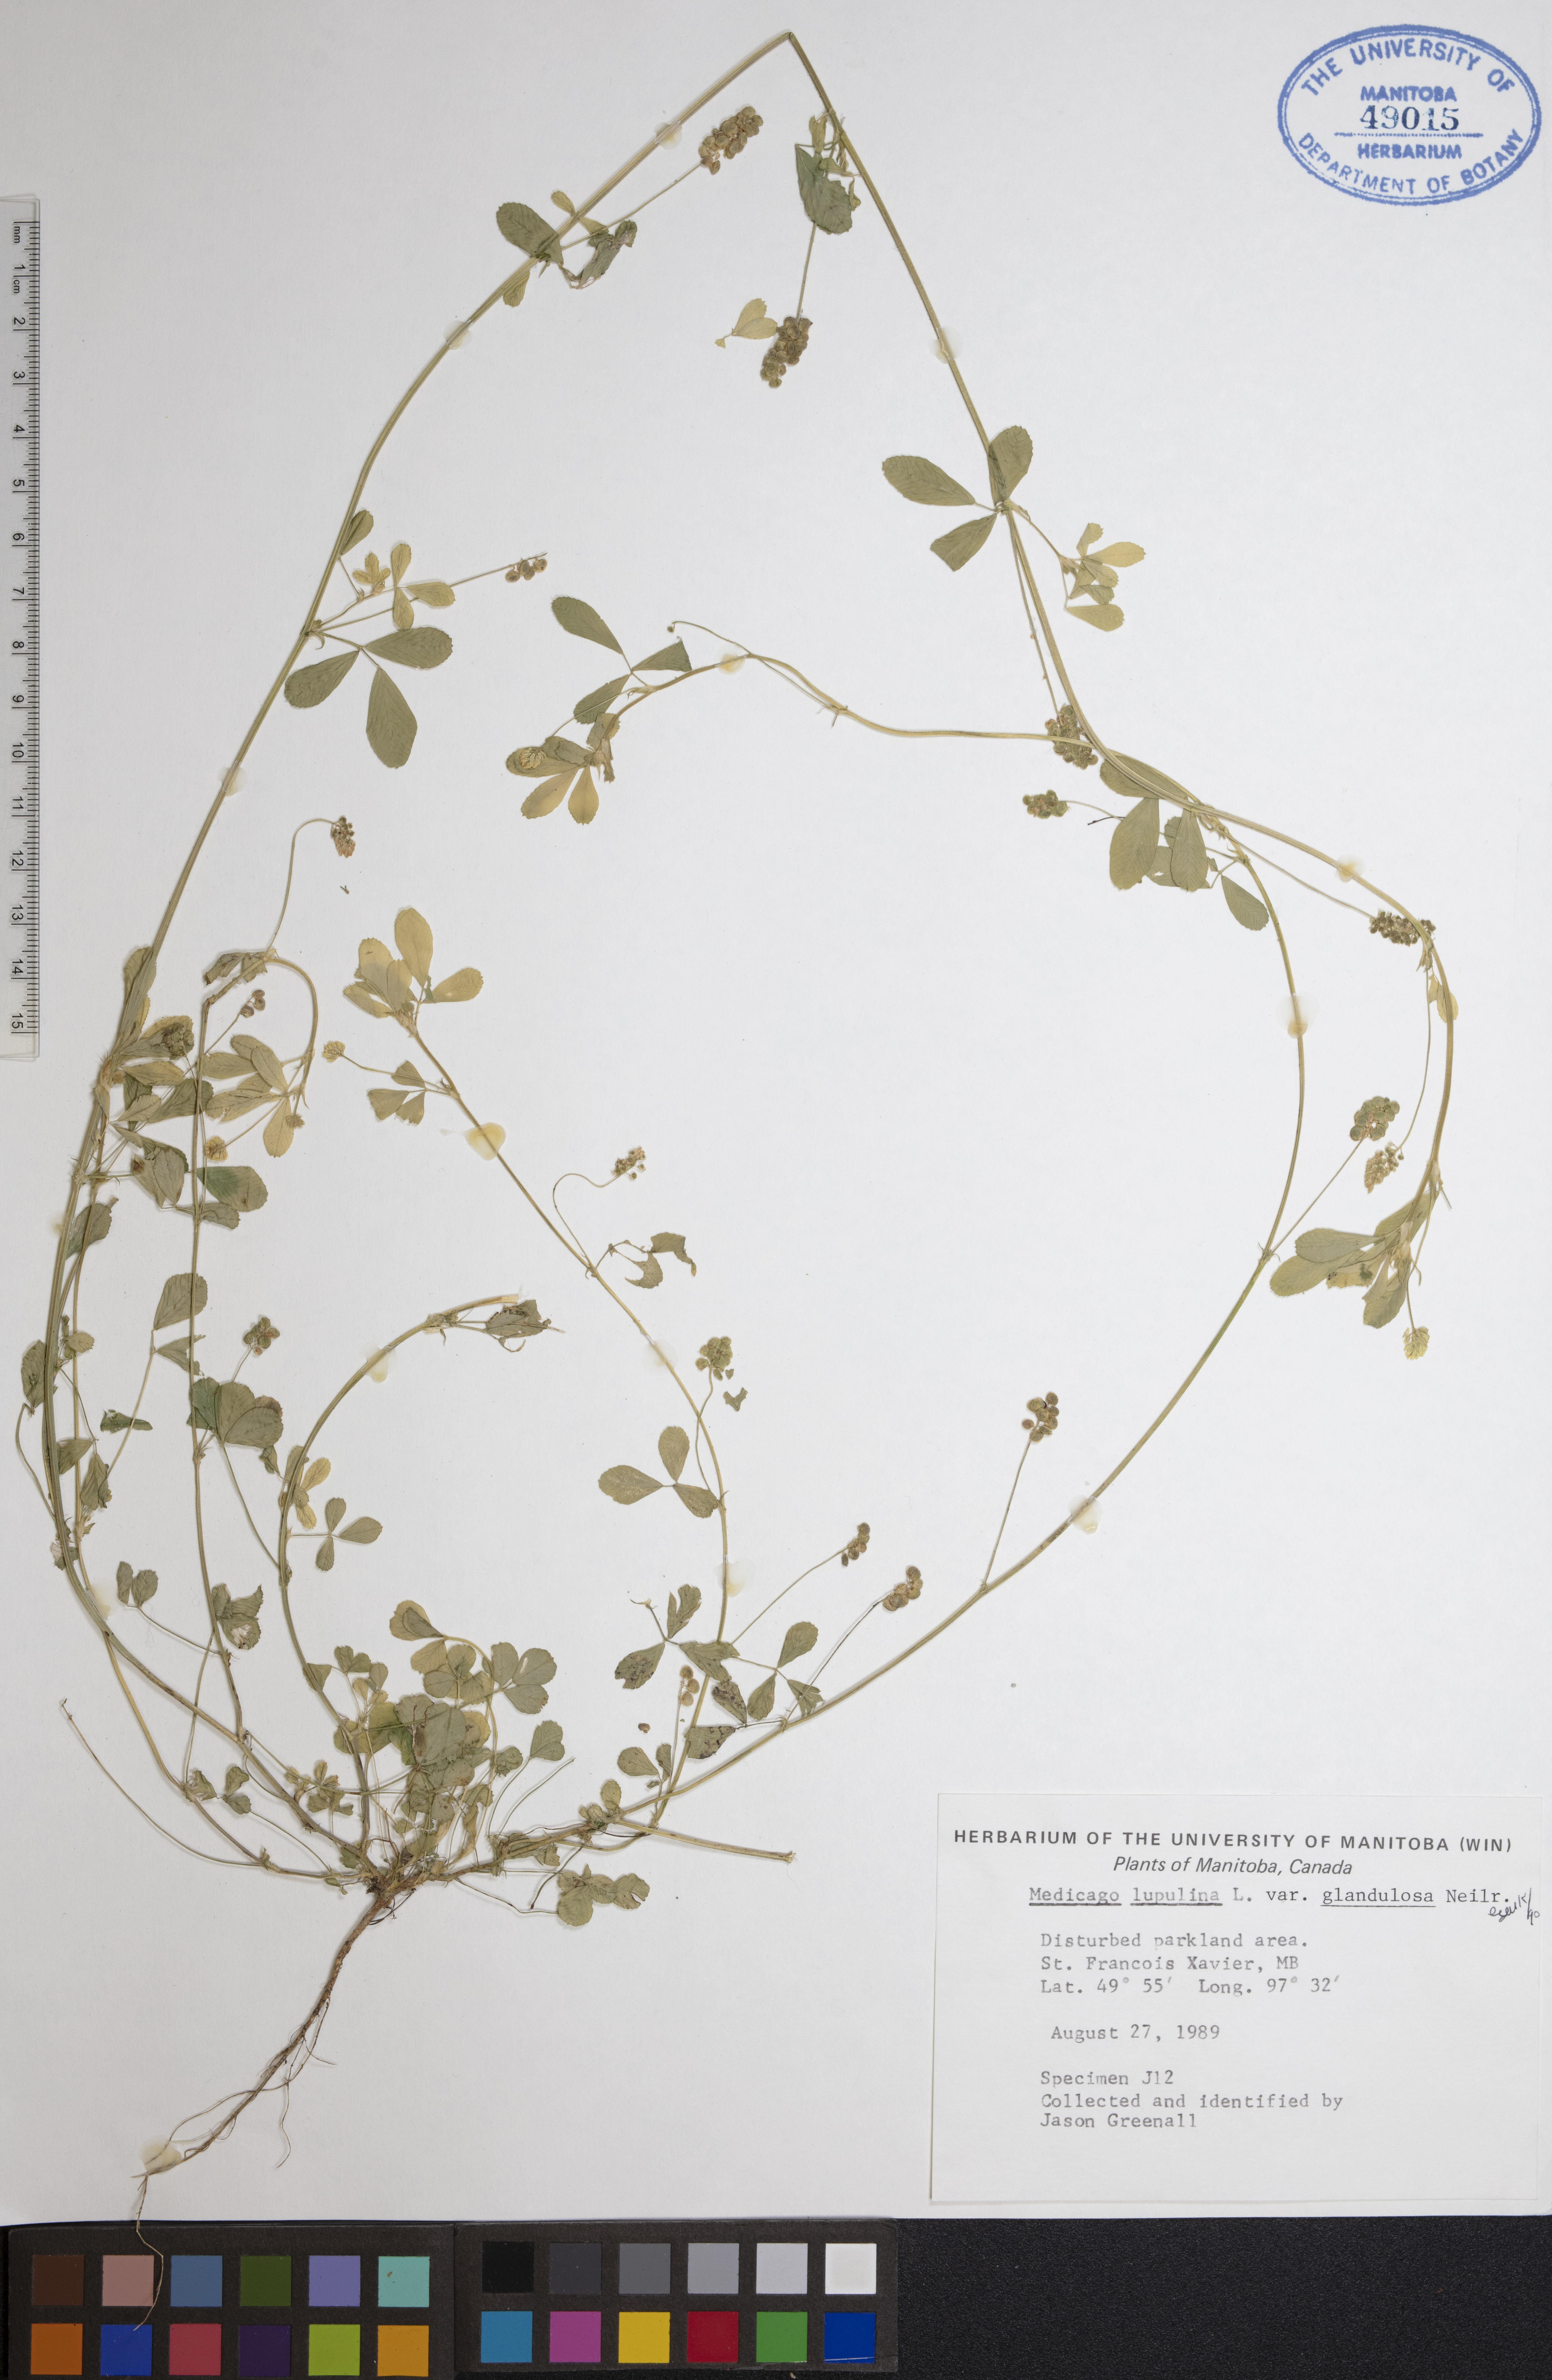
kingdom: Plantae
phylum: Tracheophyta
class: Magnoliopsida
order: Fabales
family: Fabaceae
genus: Medicago
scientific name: Medicago lupulina
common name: Black medick
